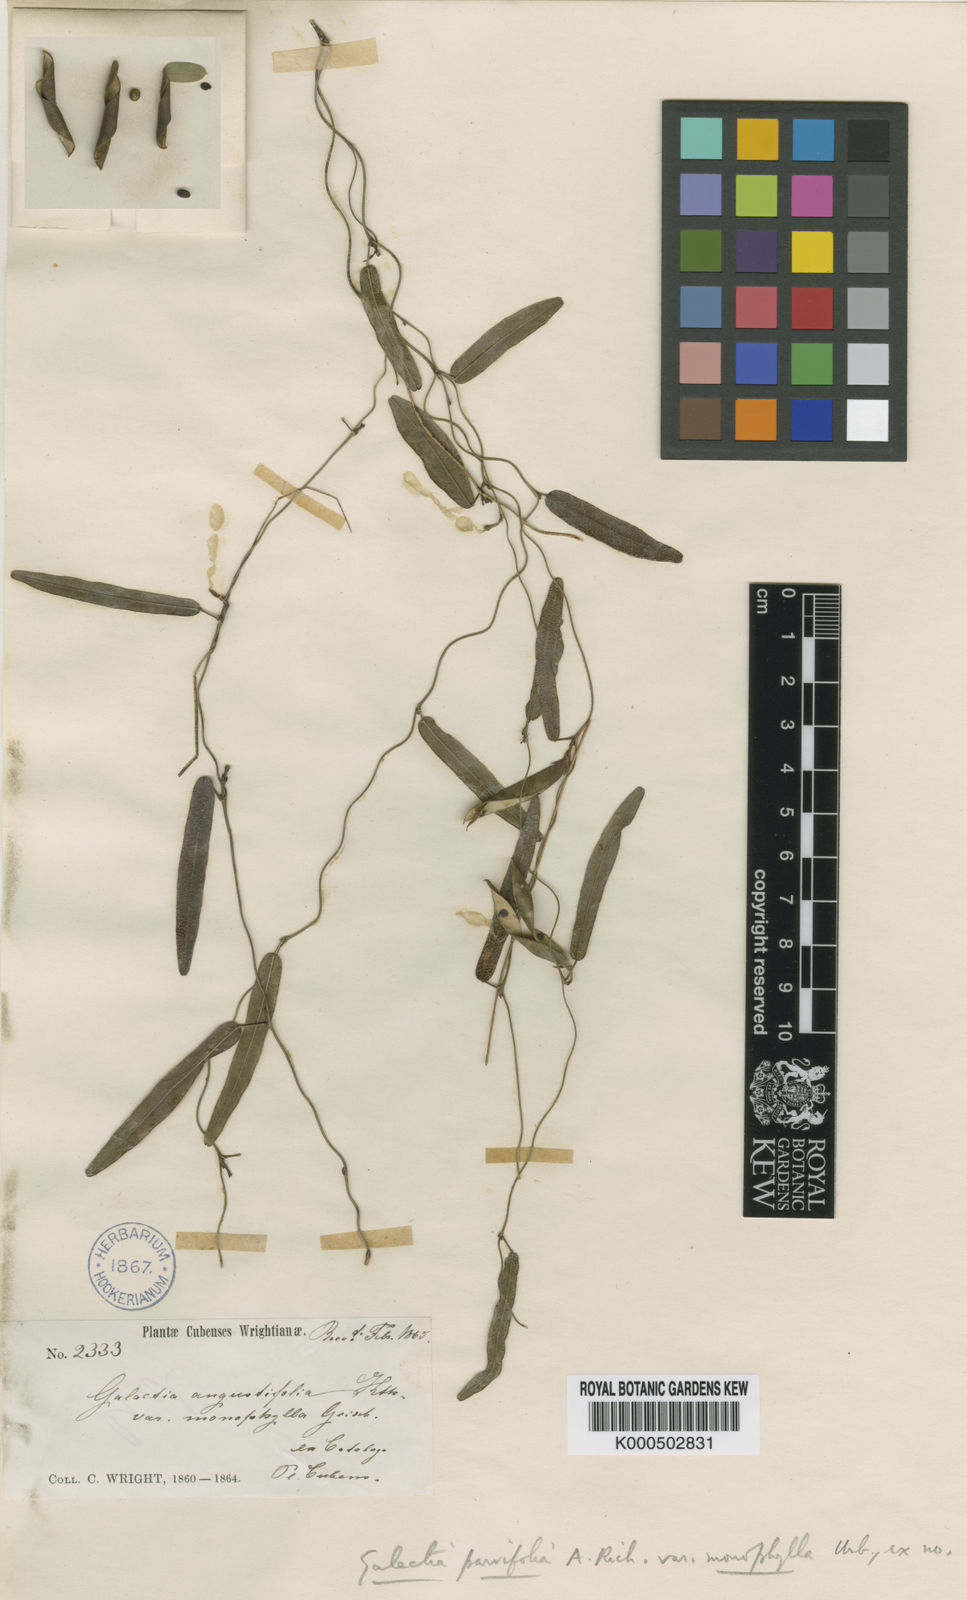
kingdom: Plantae
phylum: Tracheophyta
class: Magnoliopsida
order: Fabales
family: Fabaceae
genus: Galactia
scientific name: Galactia parvifolia
